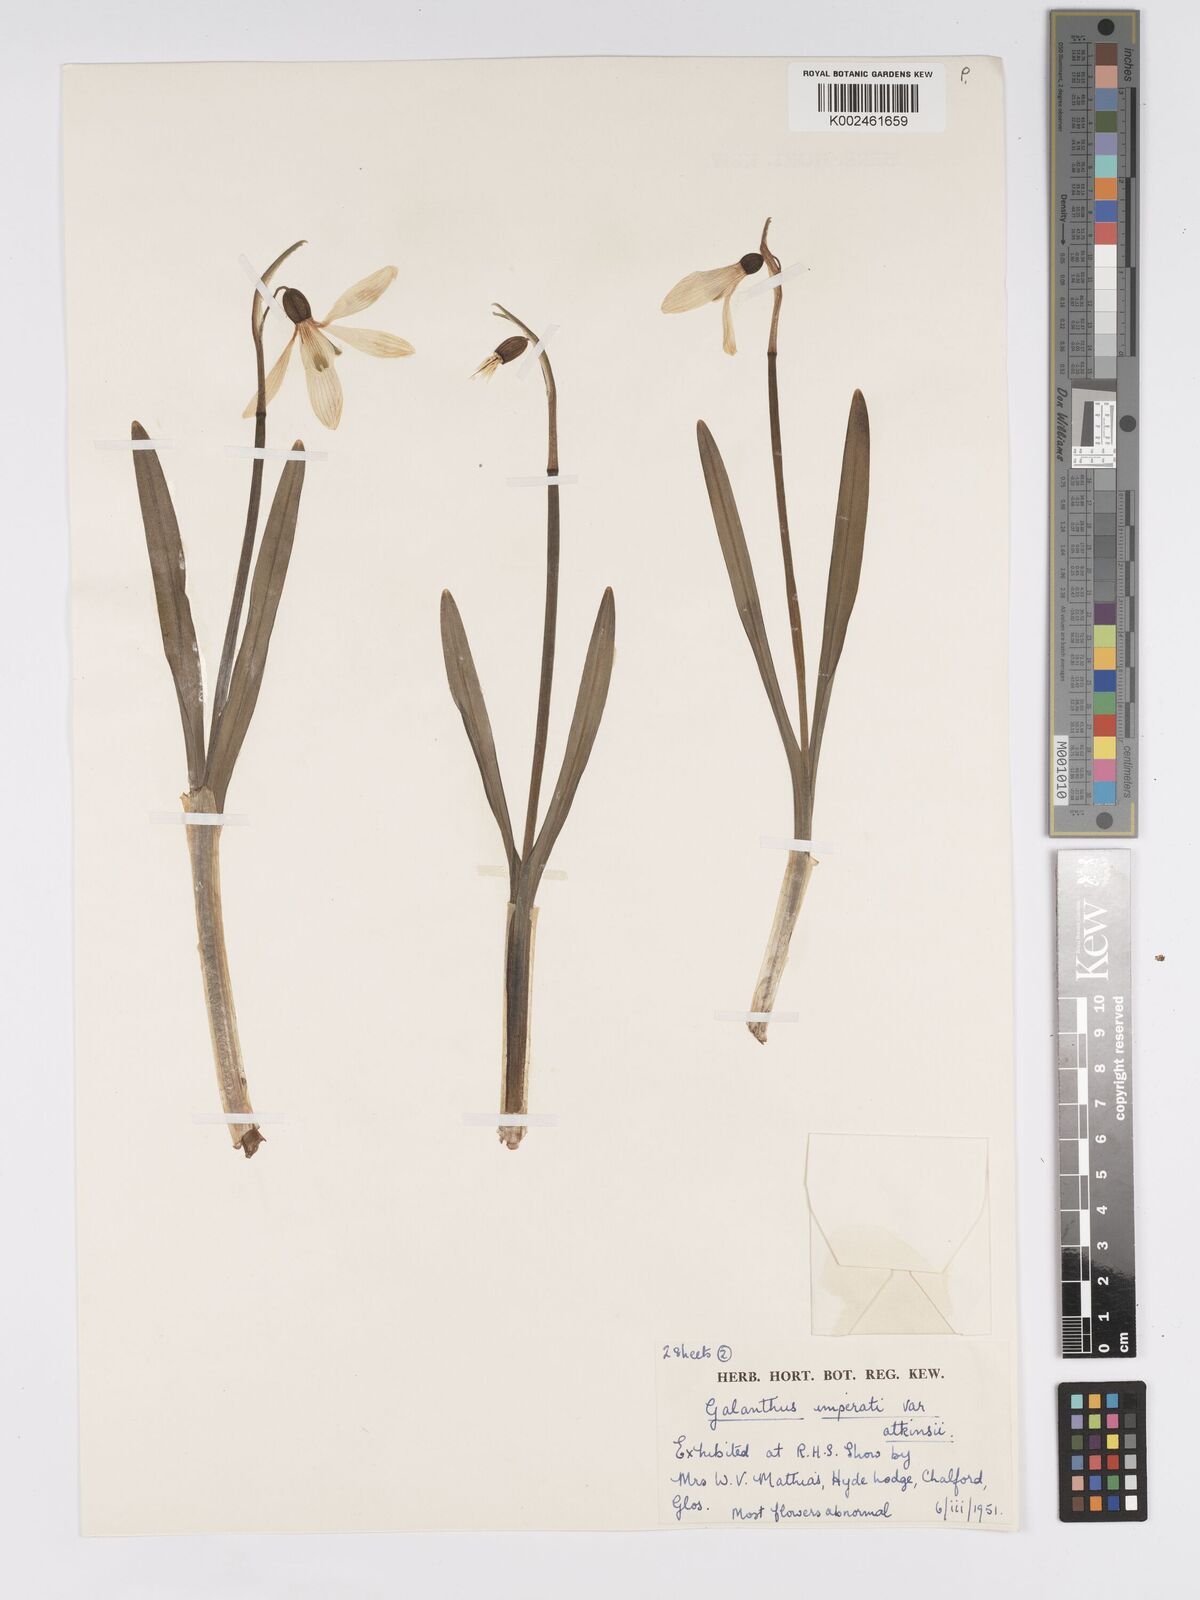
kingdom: Plantae
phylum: Tracheophyta
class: Liliopsida
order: Asparagales
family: Amaryllidaceae
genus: Galanthus
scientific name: Galanthus
